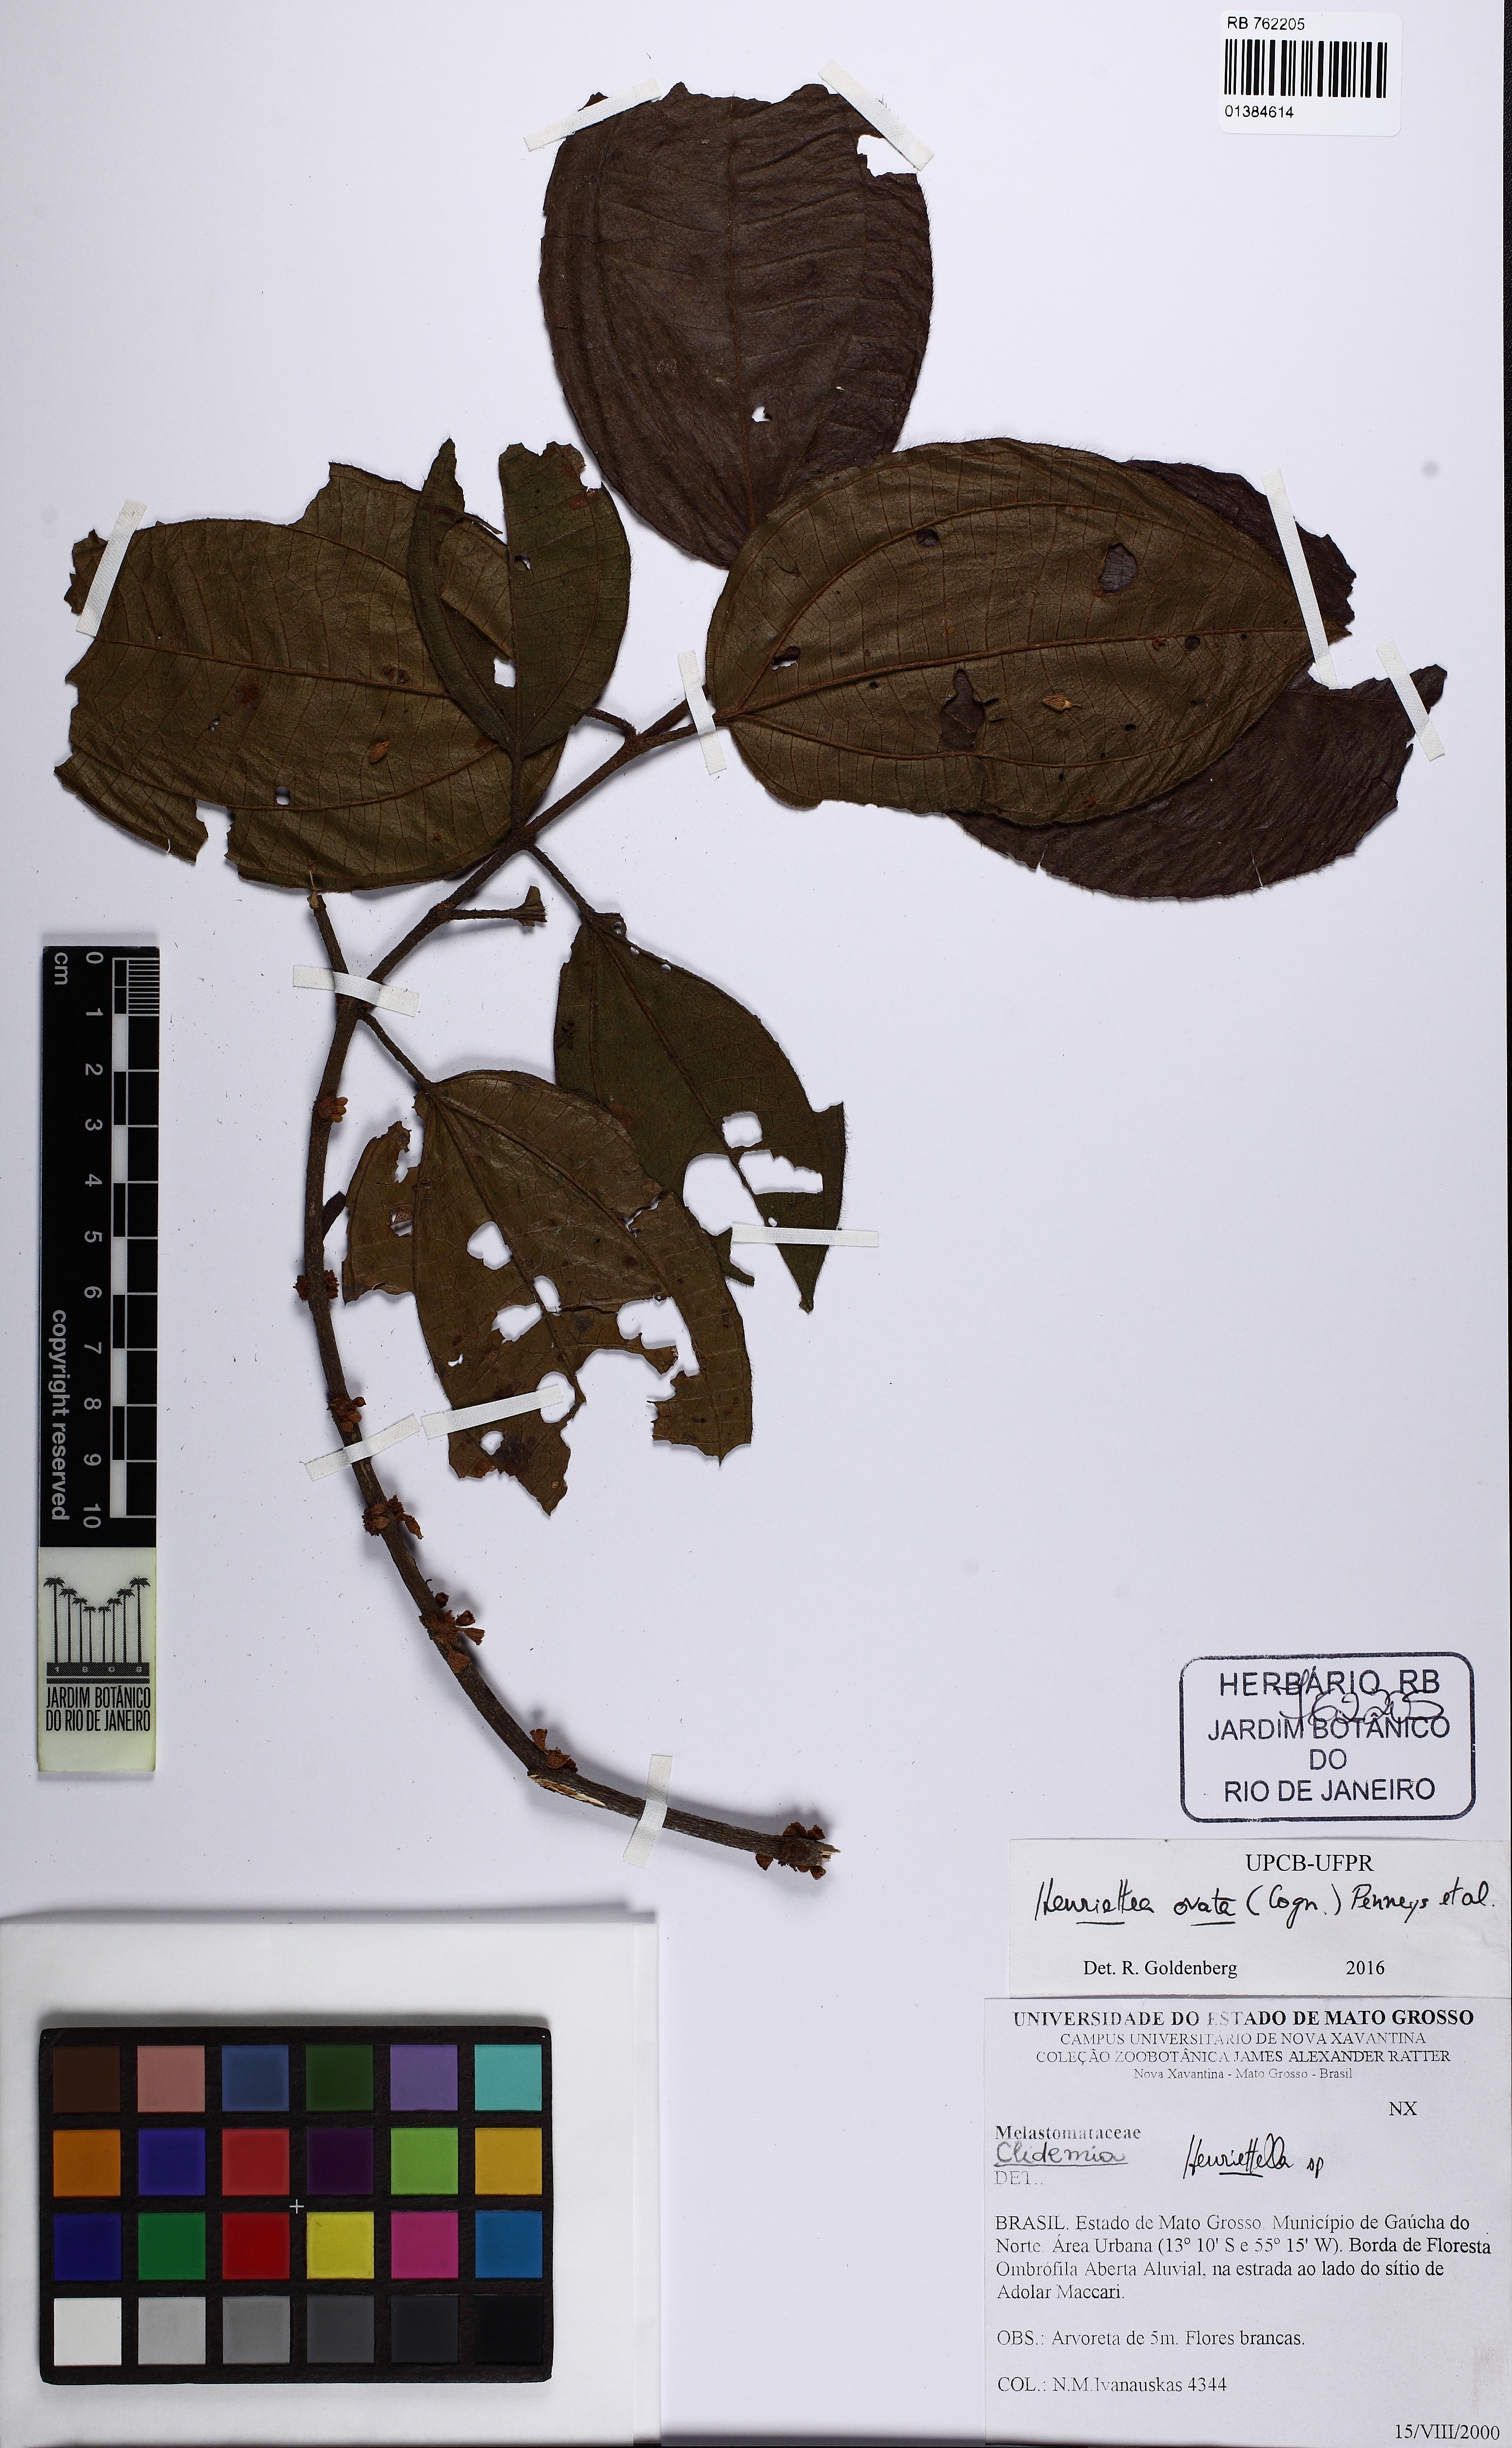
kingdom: Plantae
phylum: Tracheophyta
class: Magnoliopsida
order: Myrtales
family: Melastomataceae
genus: Henriettea
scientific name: Henriettea ovata
